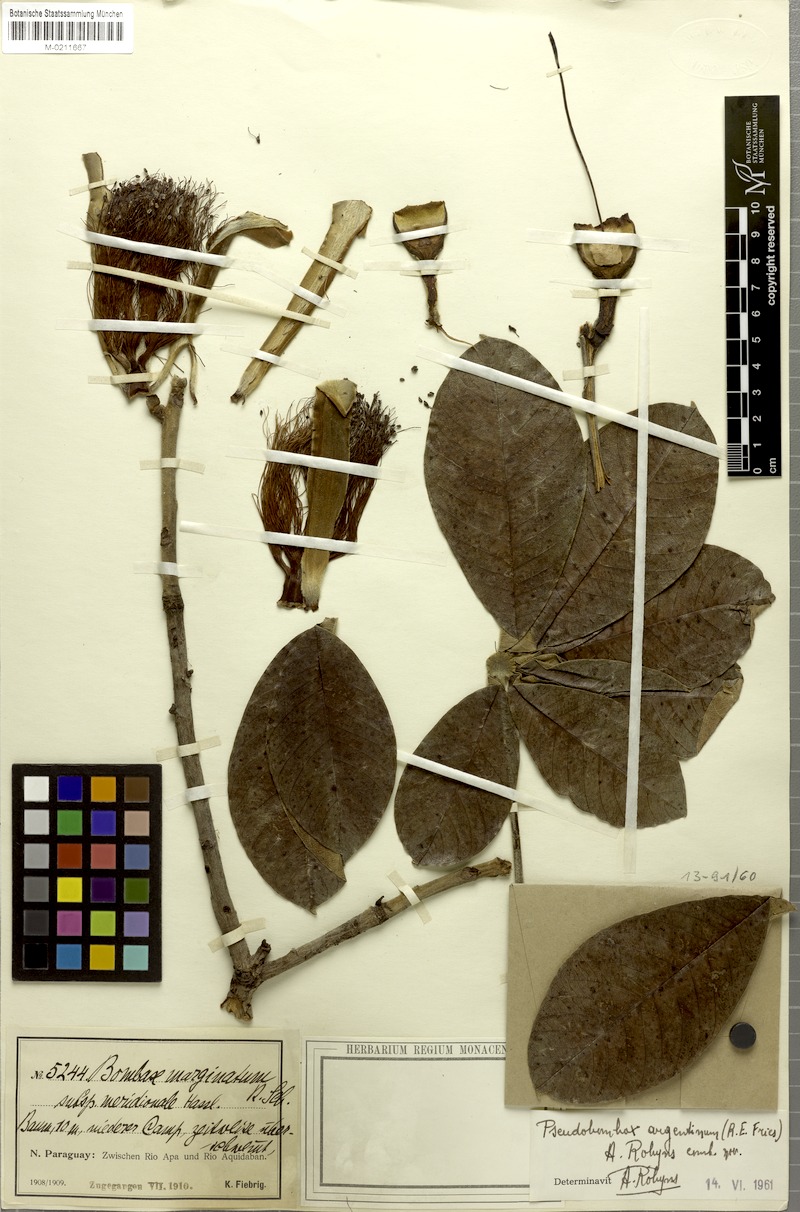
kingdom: Plantae
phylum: Tracheophyta
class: Magnoliopsida
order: Malvales
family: Malvaceae
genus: Pseudobombax
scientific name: Pseudobombax marginatum
